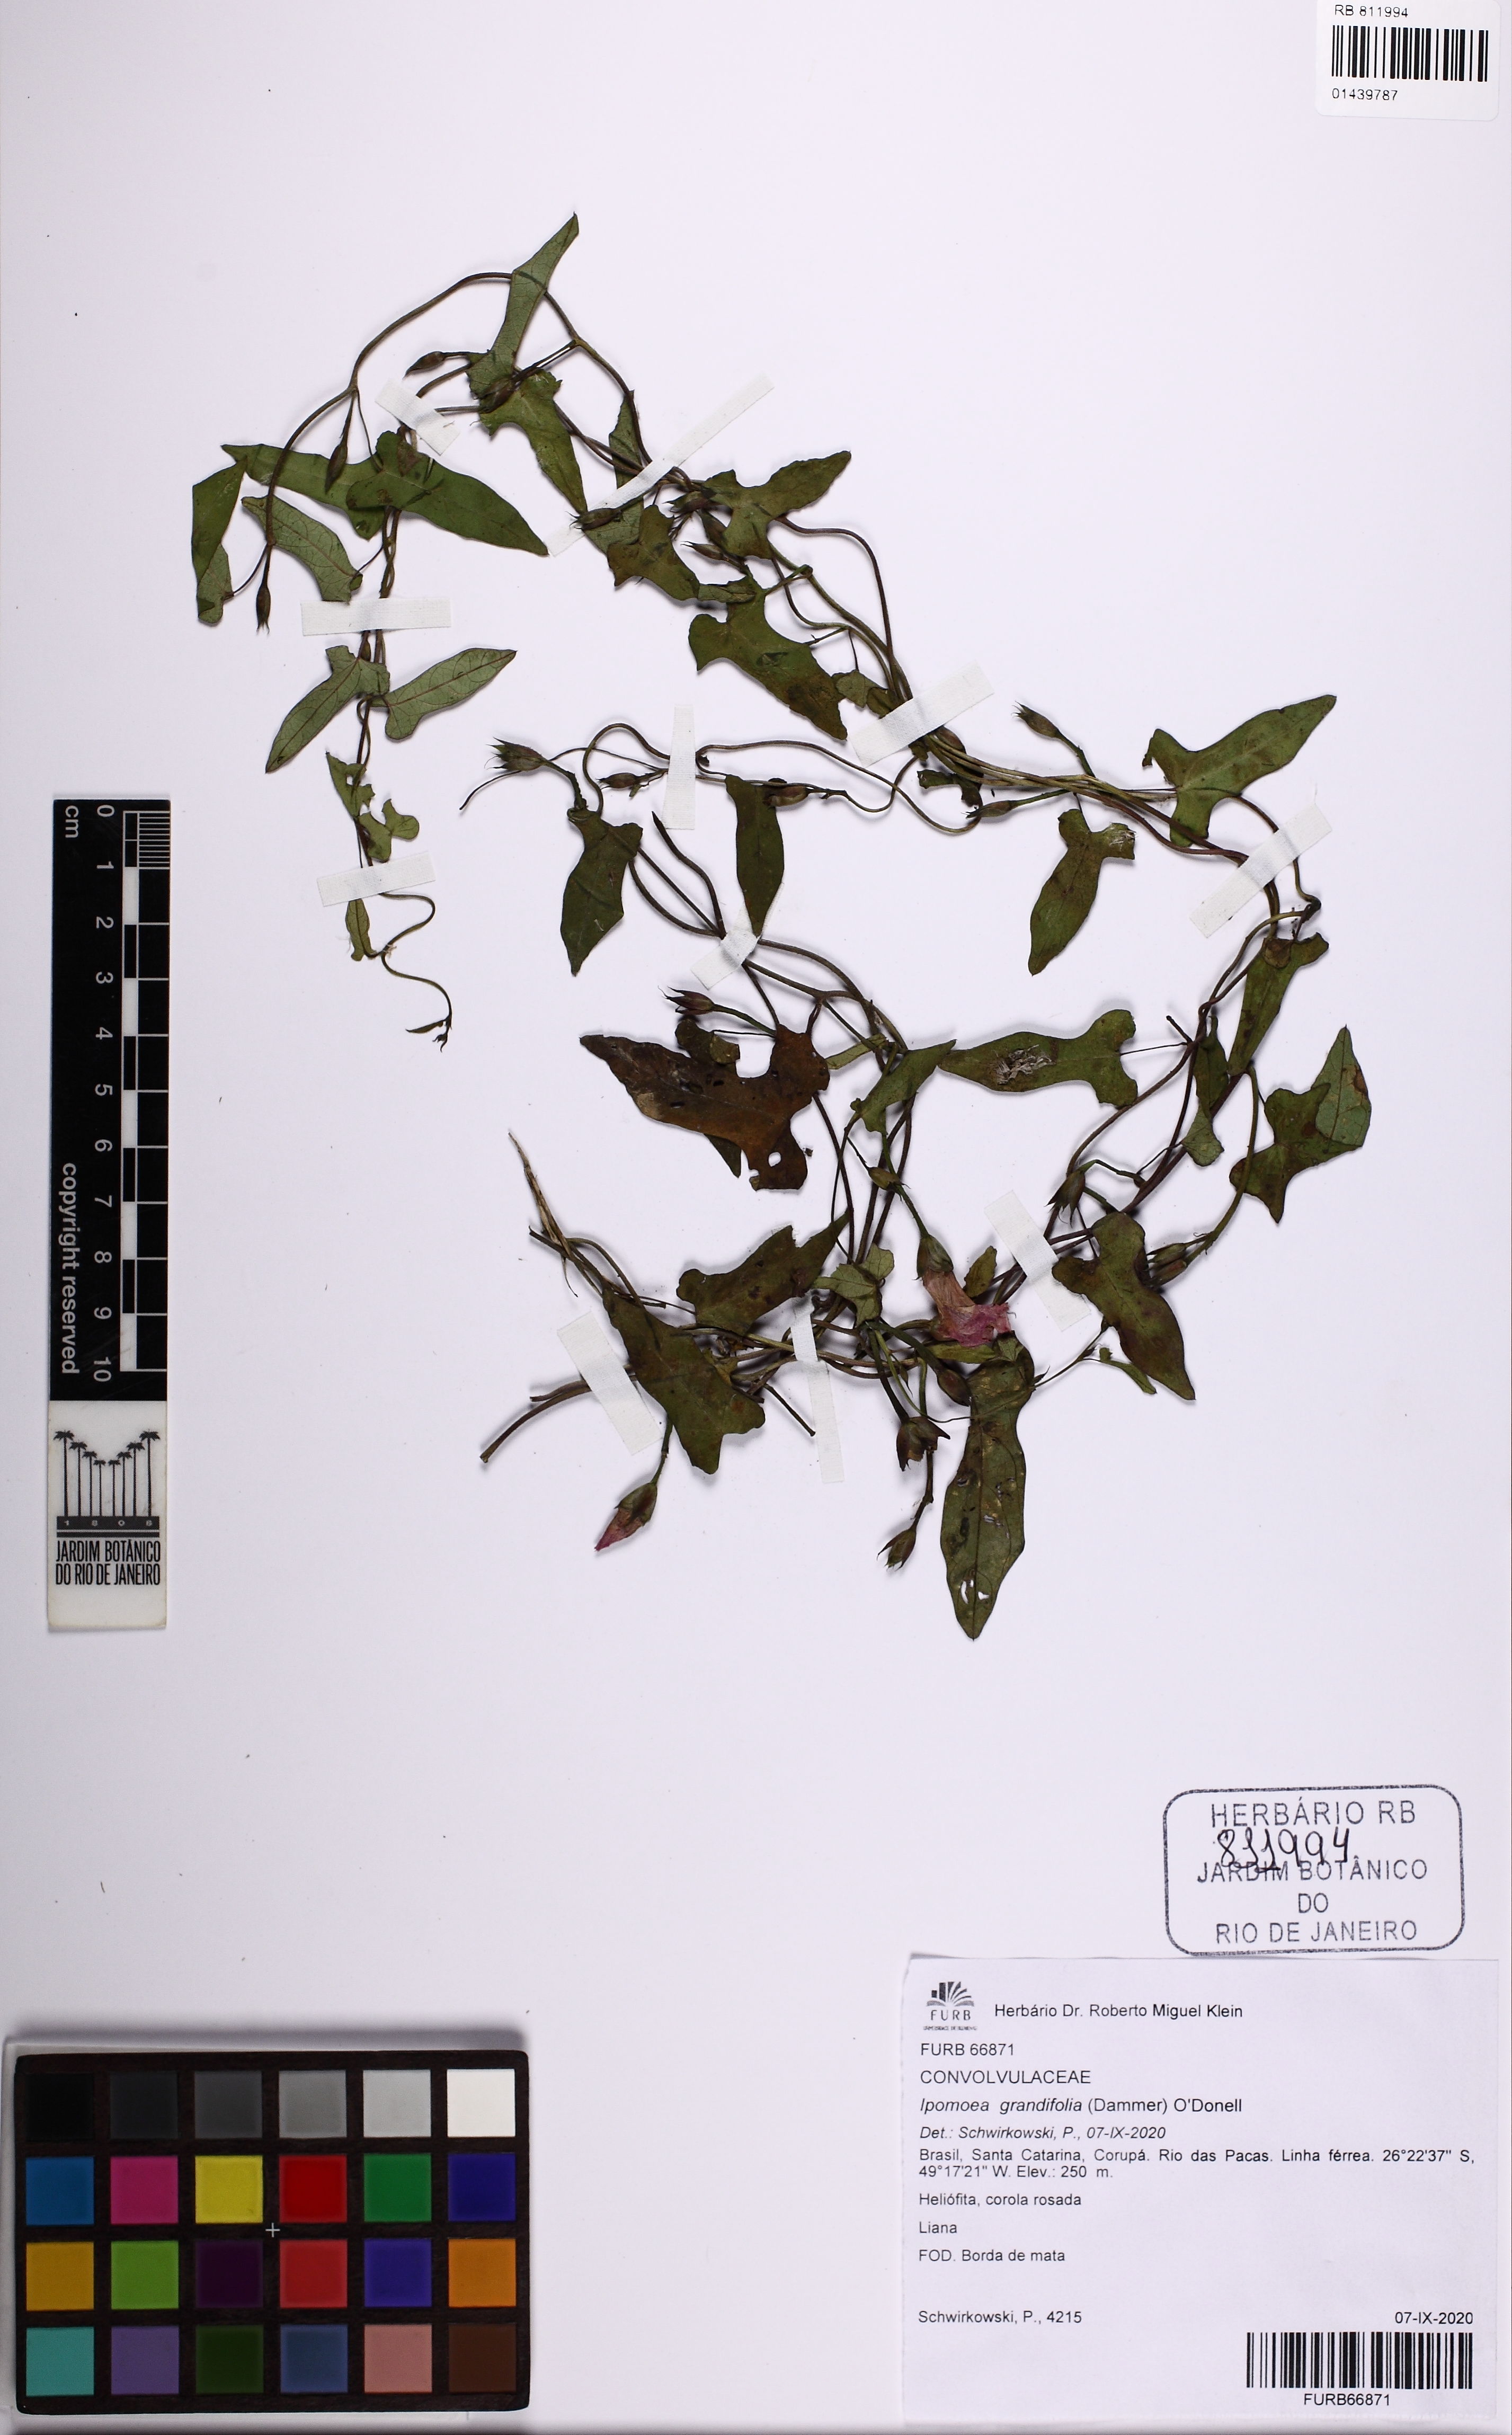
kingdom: Plantae
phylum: Tracheophyta
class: Magnoliopsida
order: Solanales
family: Convolvulaceae
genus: Ipomoea
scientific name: Ipomoea grandifolia
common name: Aiea morning glory
